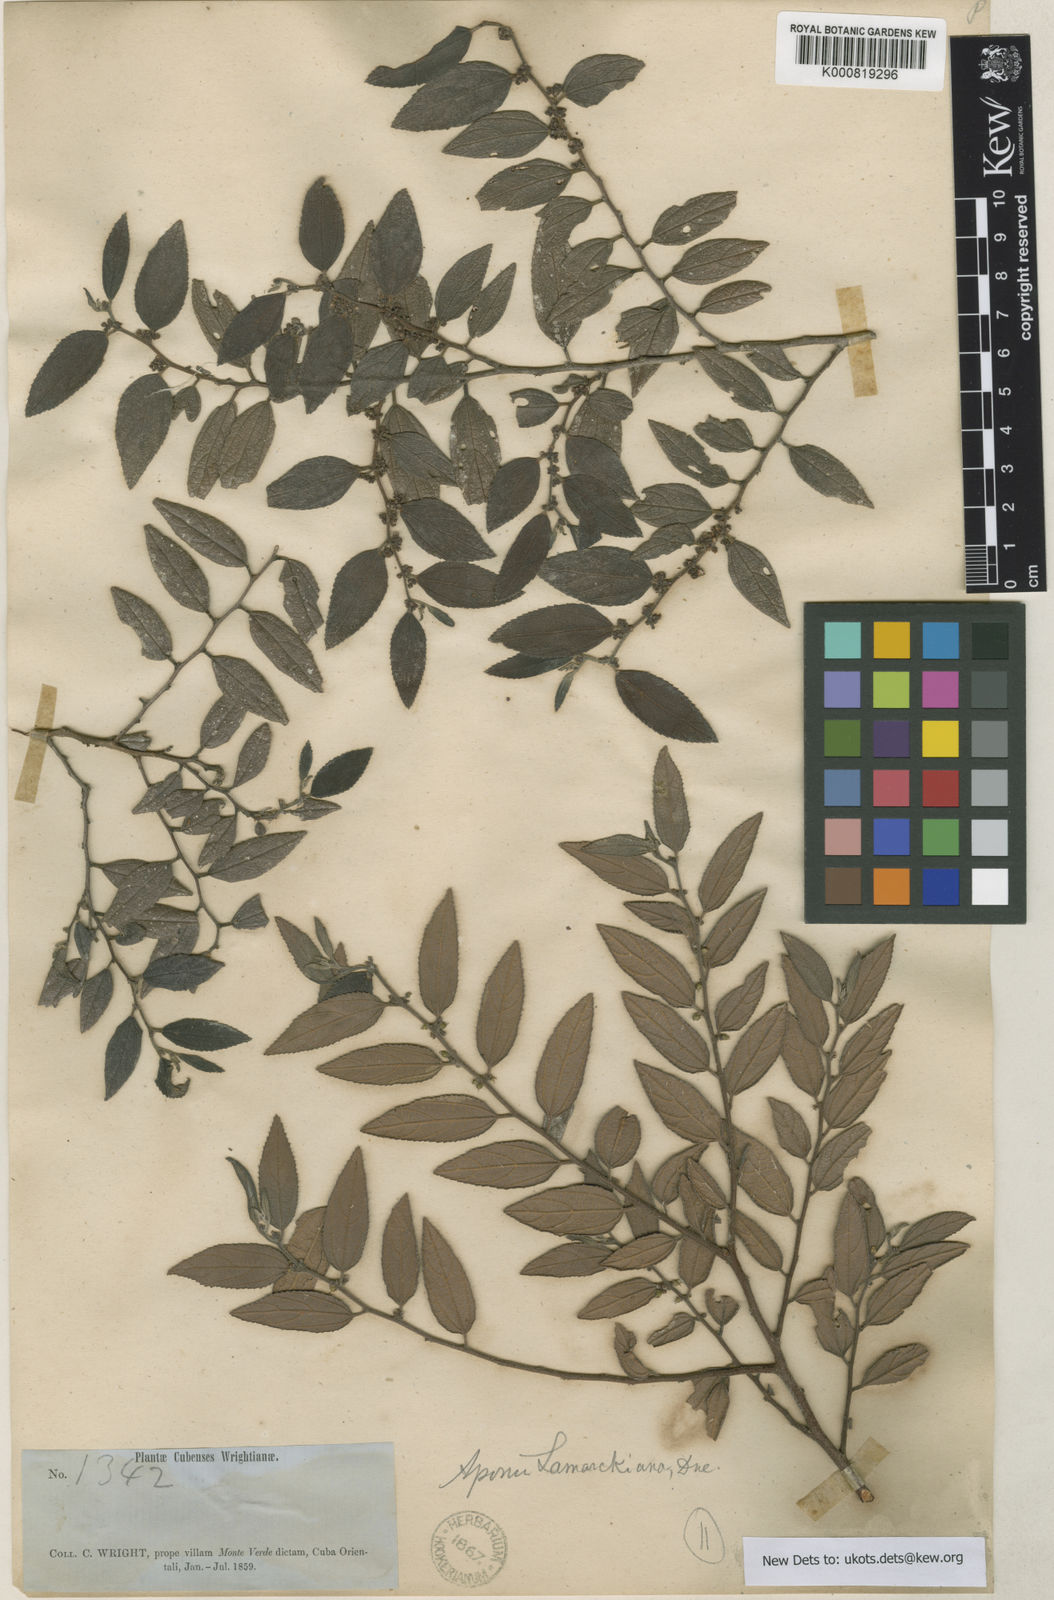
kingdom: Plantae
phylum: Tracheophyta
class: Magnoliopsida
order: Rosales
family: Cannabaceae
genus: Trema
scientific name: Trema lamarckianum
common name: Lamarck's trema
